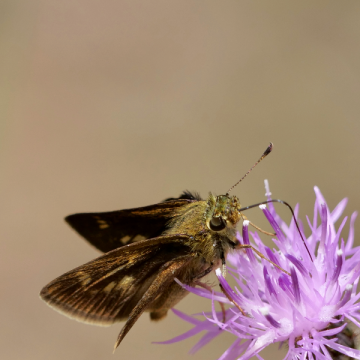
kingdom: Animalia
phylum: Arthropoda
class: Insecta
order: Lepidoptera
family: Hesperiidae
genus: Polites
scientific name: Polites egeremet
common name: Northern Broken-Dash
